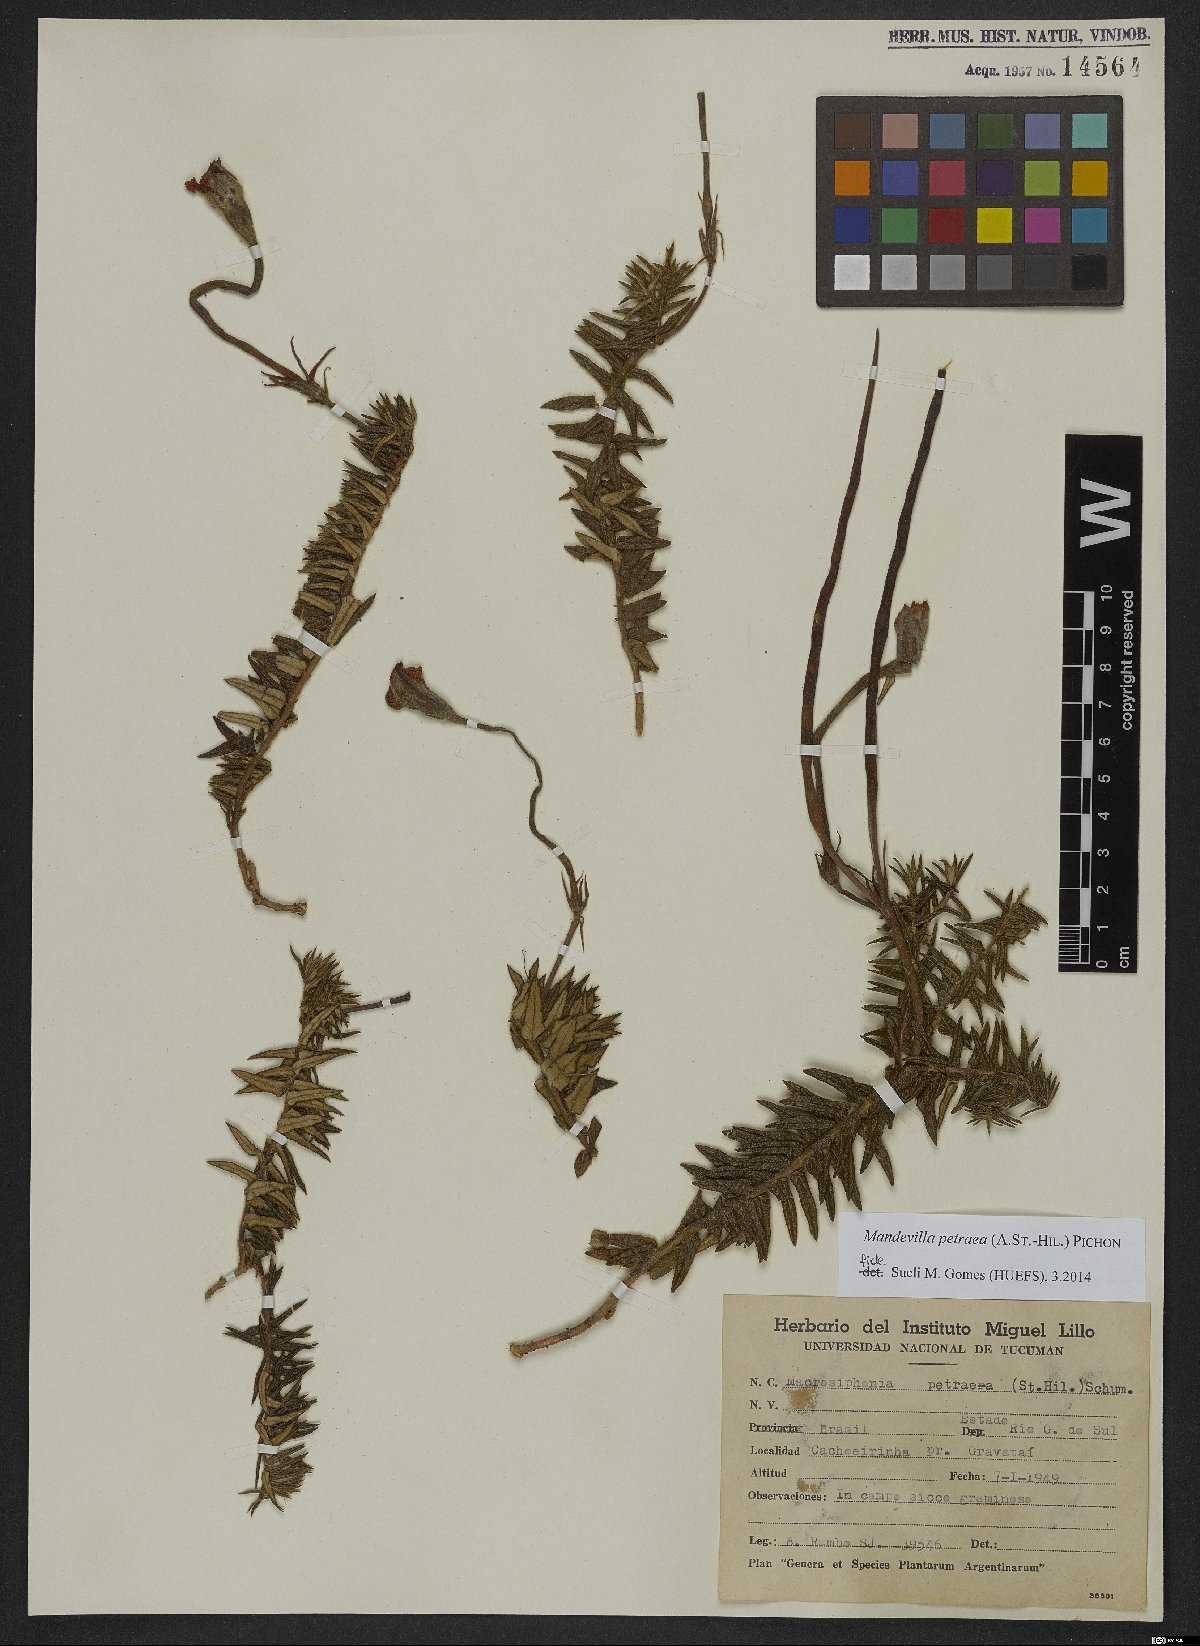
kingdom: Plantae
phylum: Tracheophyta
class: Magnoliopsida
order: Gentianales
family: Apocynaceae
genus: Mandevilla
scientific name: Mandevilla petraea
